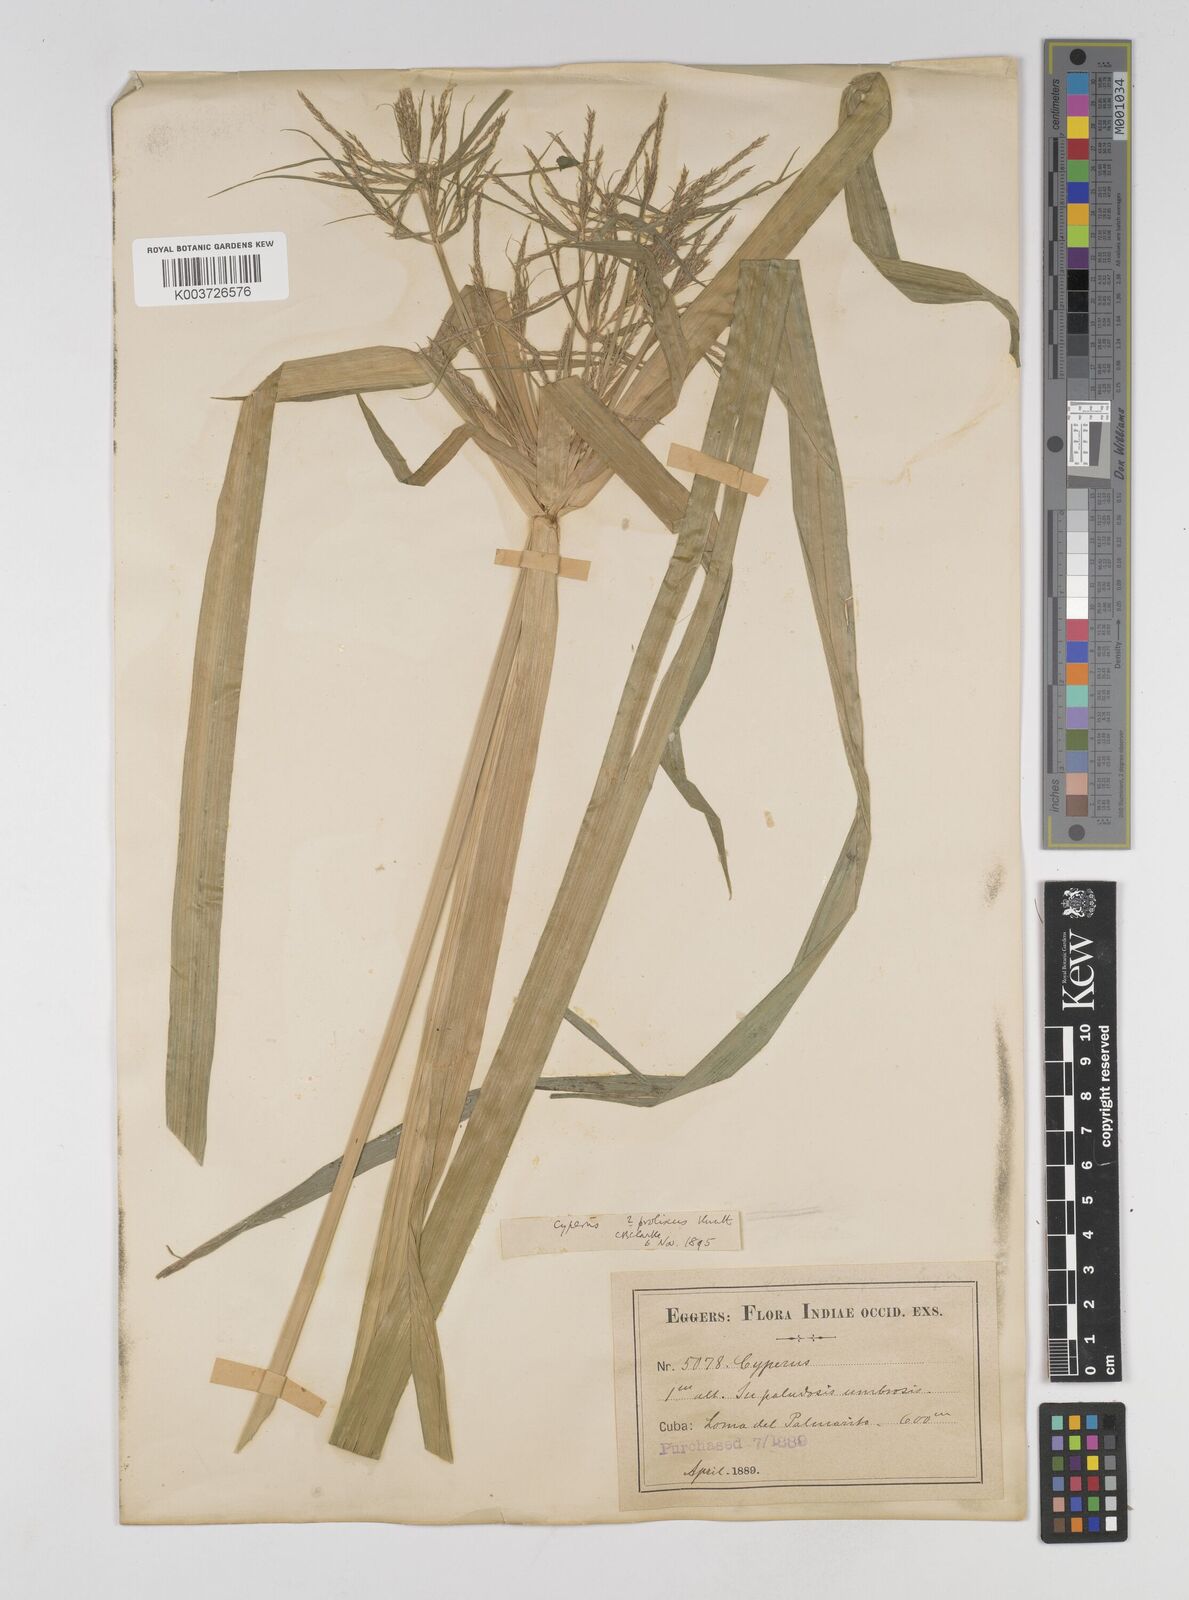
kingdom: Plantae
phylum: Tracheophyta
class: Liliopsida
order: Poales
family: Cyperaceae
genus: Cyperus
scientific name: Cyperus
